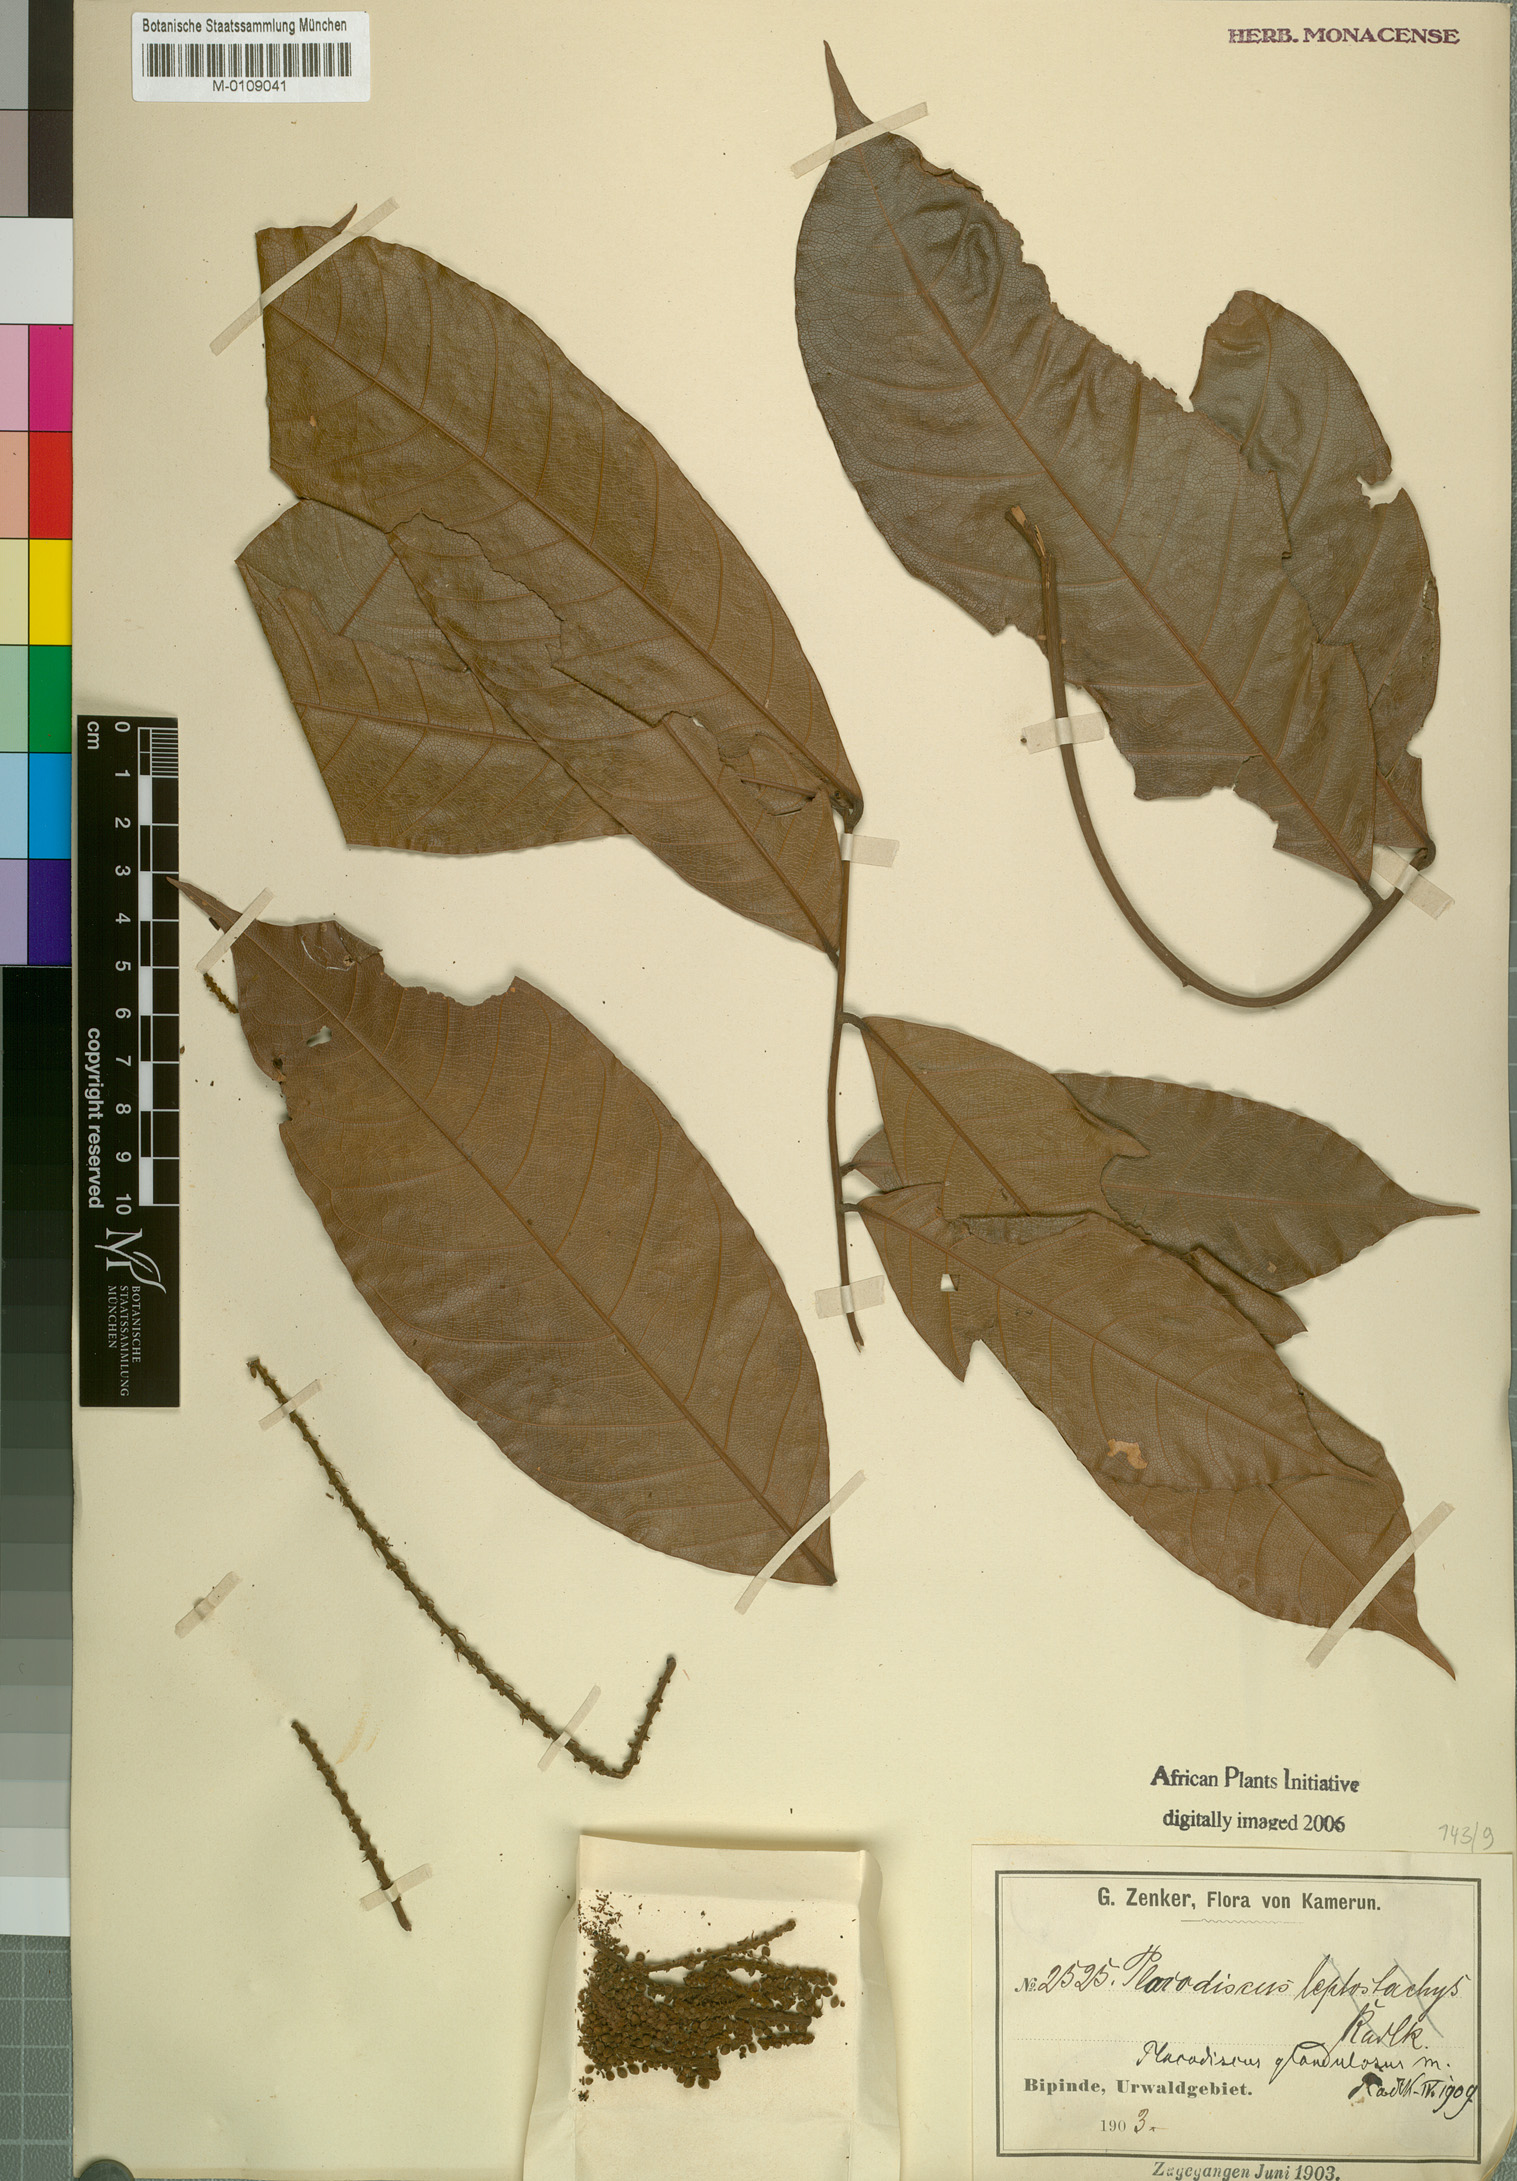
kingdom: Plantae
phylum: Tracheophyta
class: Magnoliopsida
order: Sapindales
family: Sapindaceae
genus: Placodiscus
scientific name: Placodiscus glandulosus
